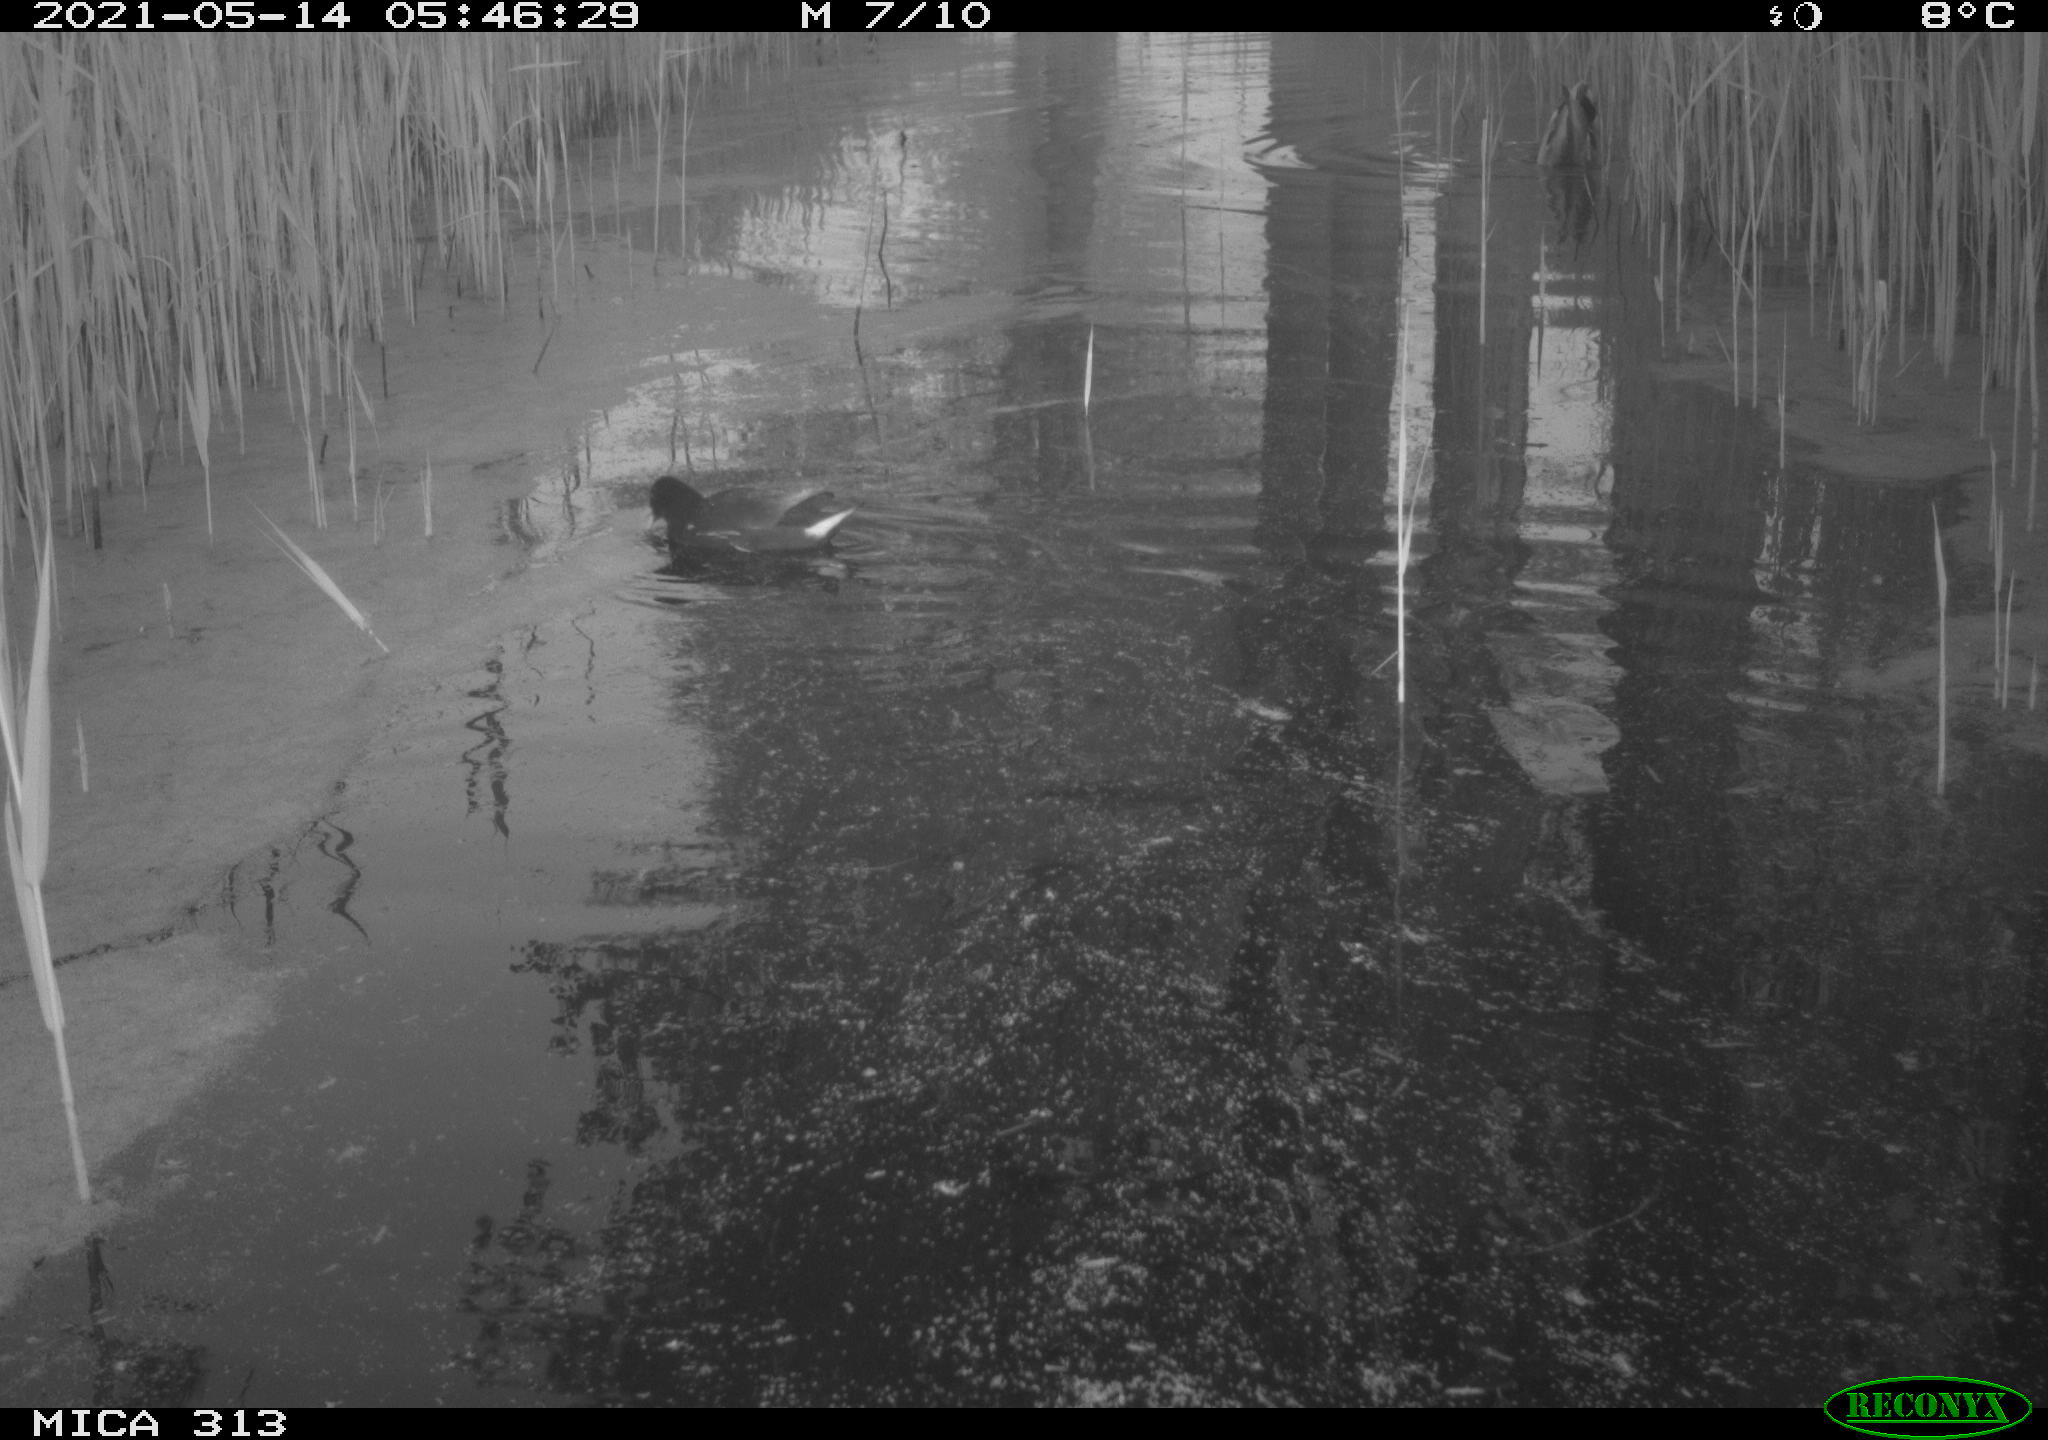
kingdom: Animalia
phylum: Chordata
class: Aves
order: Anseriformes
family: Anatidae
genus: Anas
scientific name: Anas platyrhynchos
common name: Mallard
